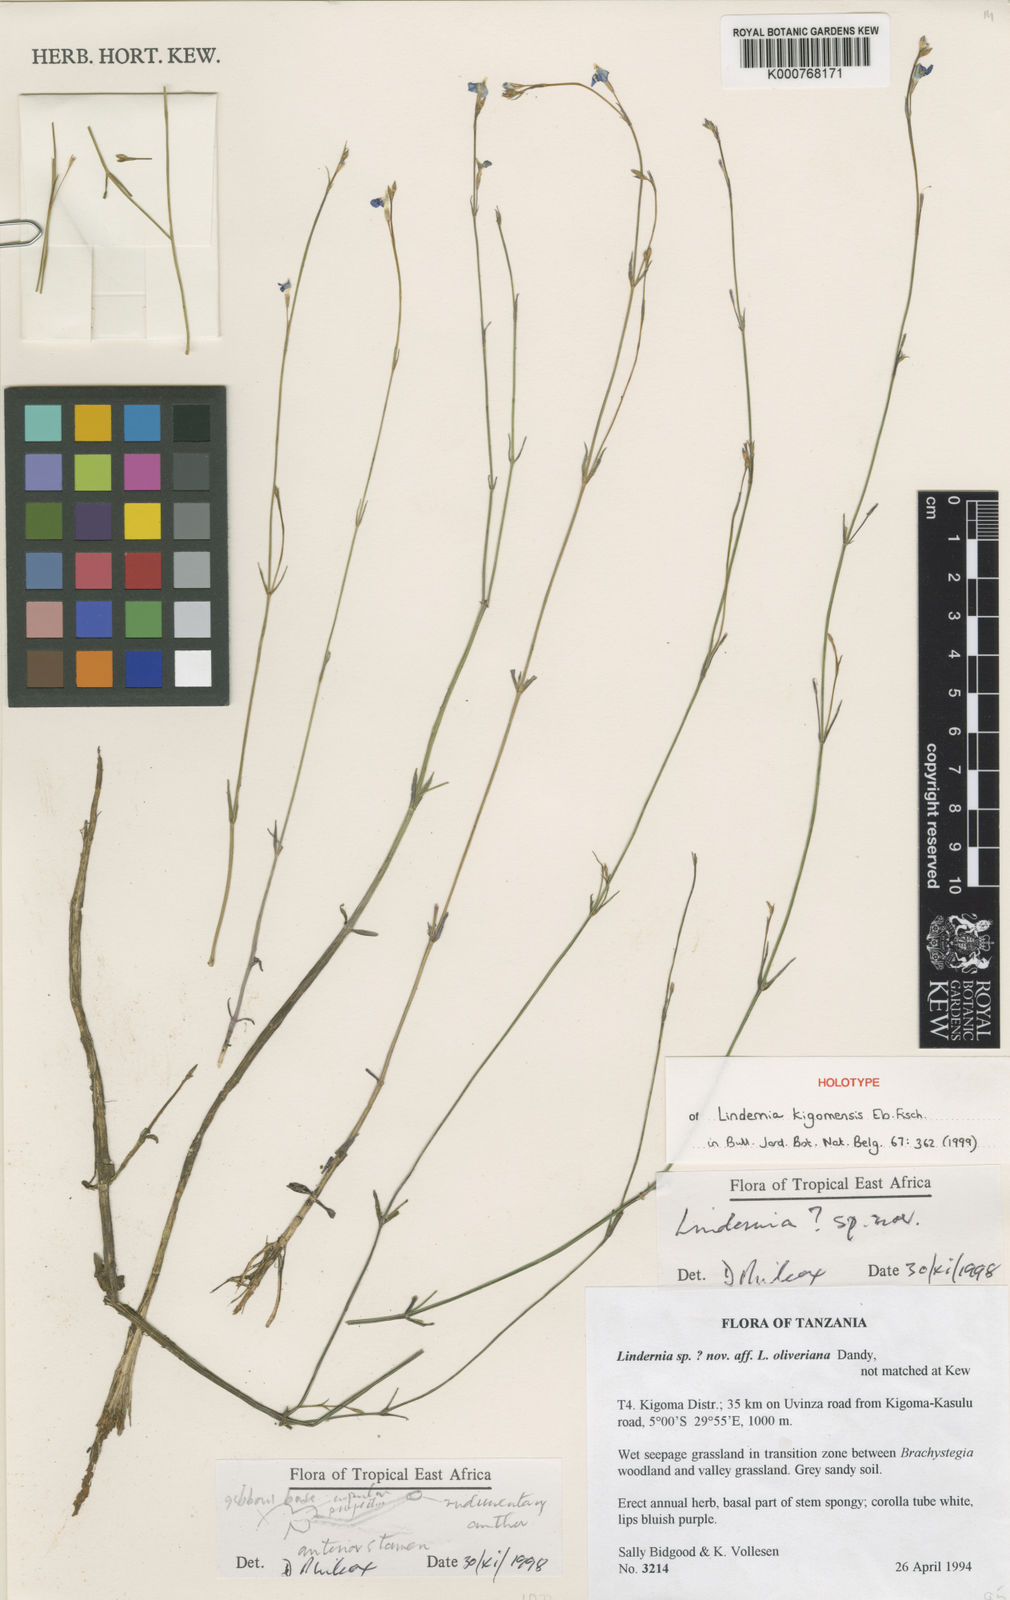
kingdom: Plantae
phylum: Tracheophyta
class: Magnoliopsida
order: Lamiales
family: Linderniaceae
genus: Craterostigma
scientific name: Craterostigma kigomense
